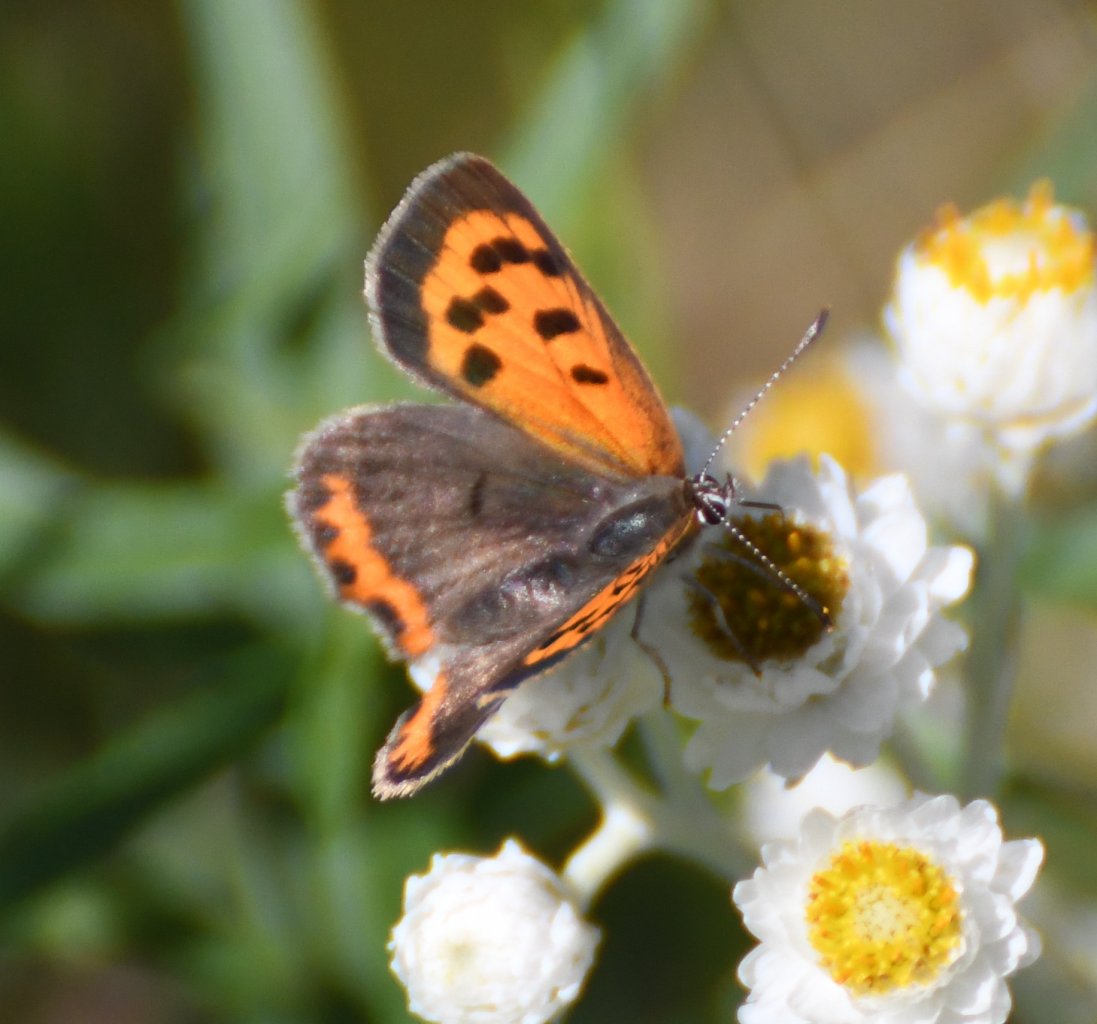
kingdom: Animalia
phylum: Arthropoda
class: Insecta
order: Lepidoptera
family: Lycaenidae
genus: Lycaena
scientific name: Lycaena phlaeas
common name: American Copper
